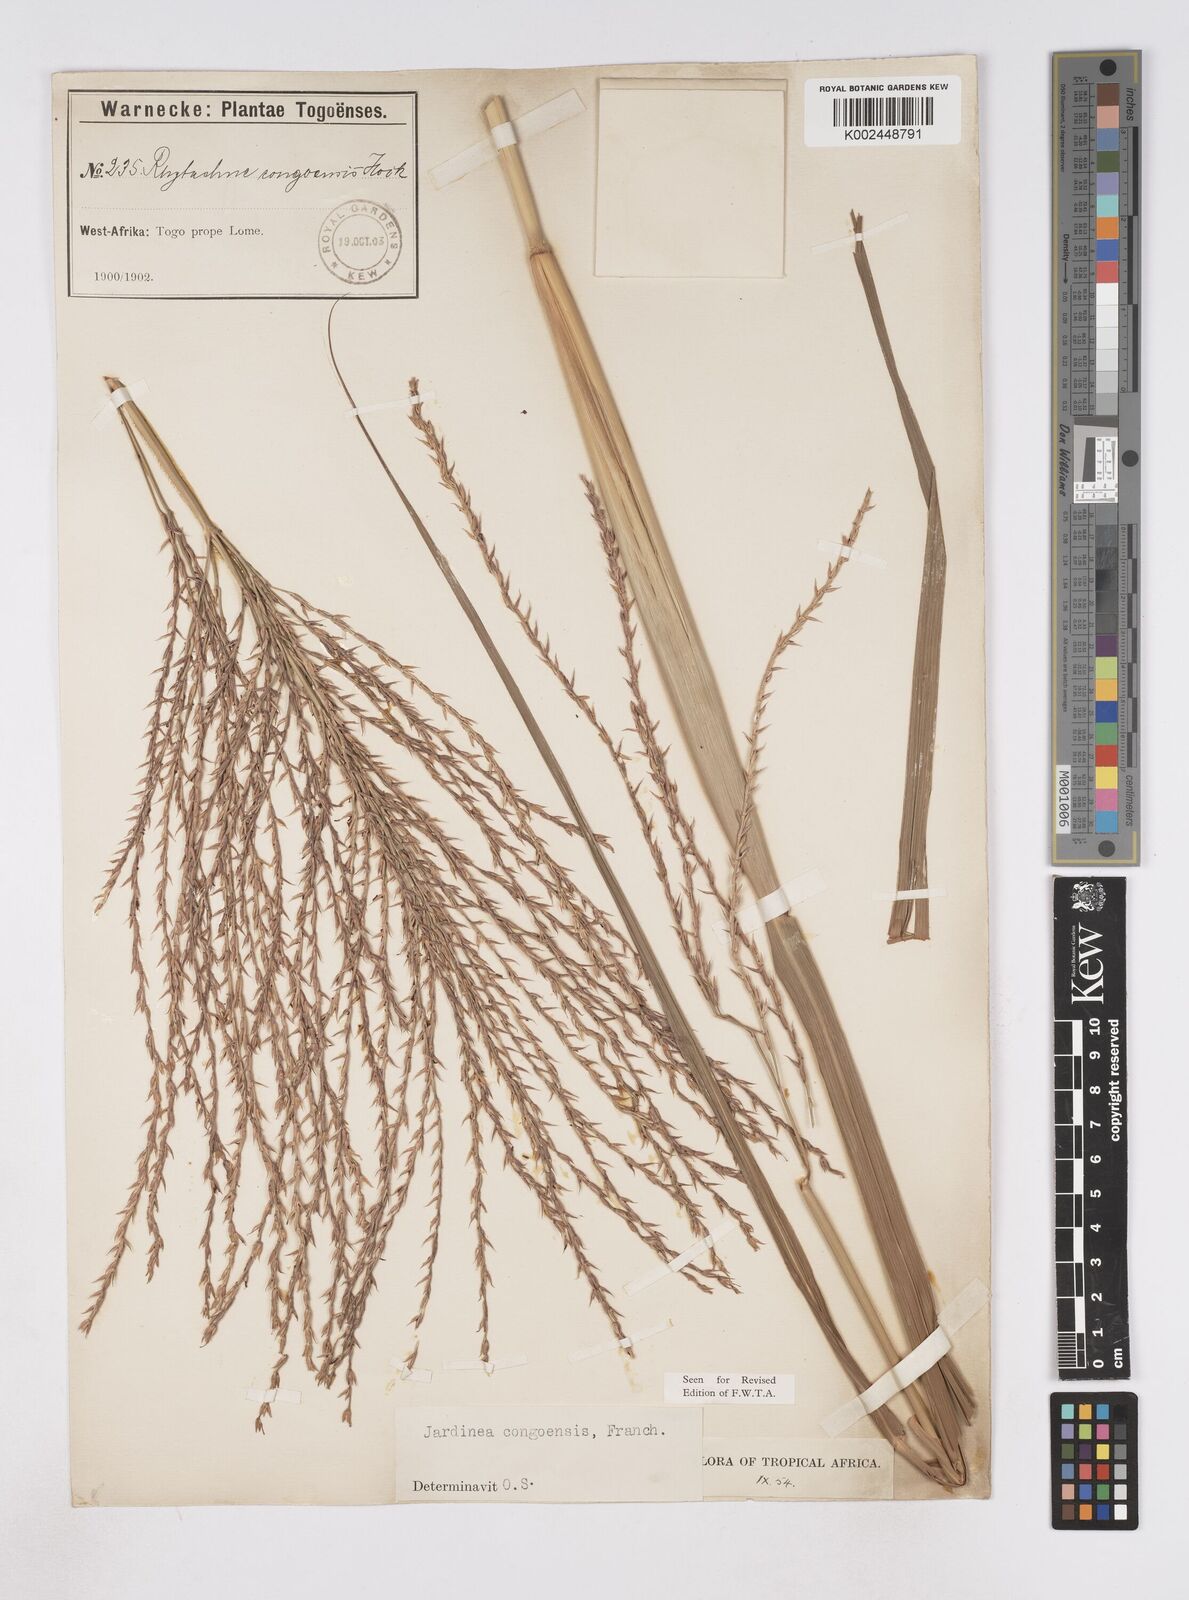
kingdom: Plantae
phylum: Tracheophyta
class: Liliopsida
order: Poales
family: Poaceae
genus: Phacelurus
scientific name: Phacelurus gabonensis
